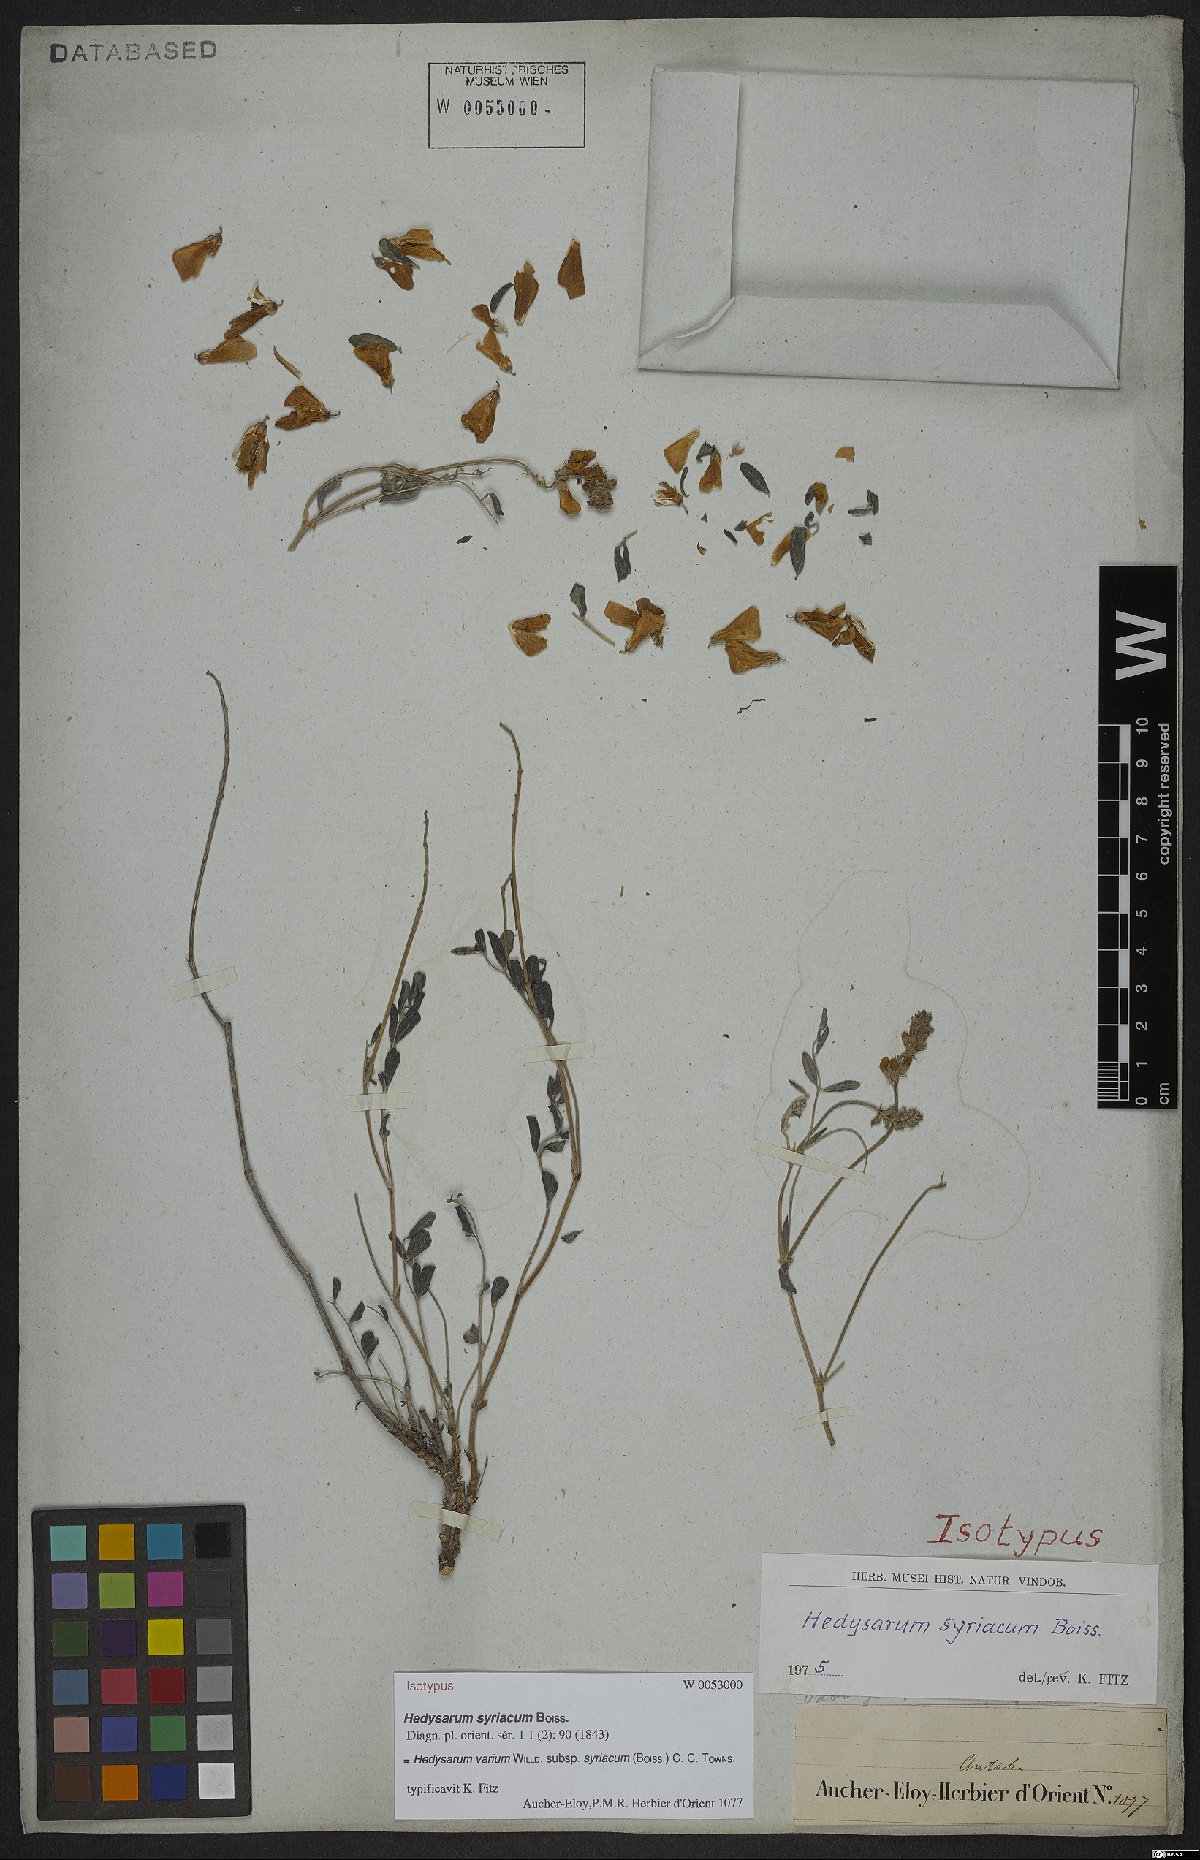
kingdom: Plantae
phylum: Tracheophyta
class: Magnoliopsida
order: Fabales
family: Fabaceae
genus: Hedysarum
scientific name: Hedysarum syriacum
